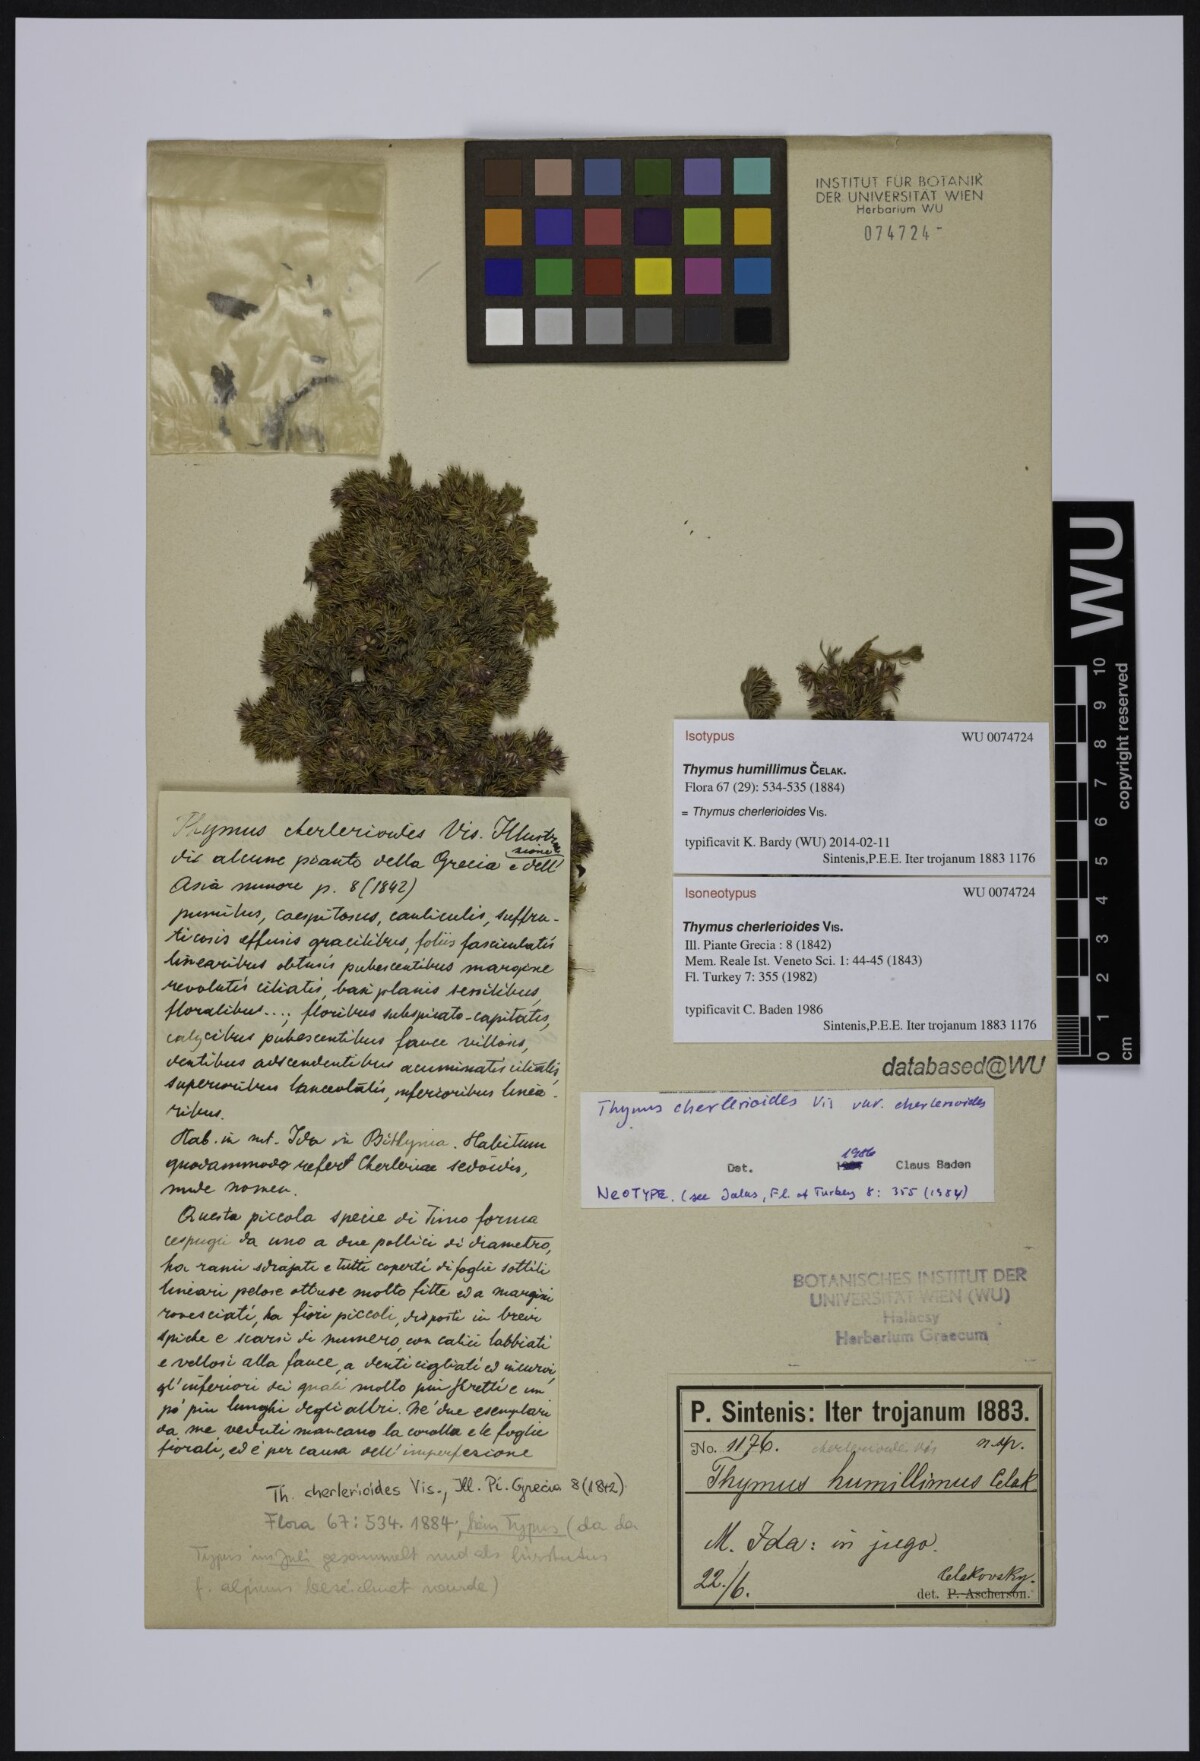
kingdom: Plantae
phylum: Tracheophyta
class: Magnoliopsida
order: Lamiales
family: Lamiaceae
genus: Thymus
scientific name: Thymus cherlerioides
